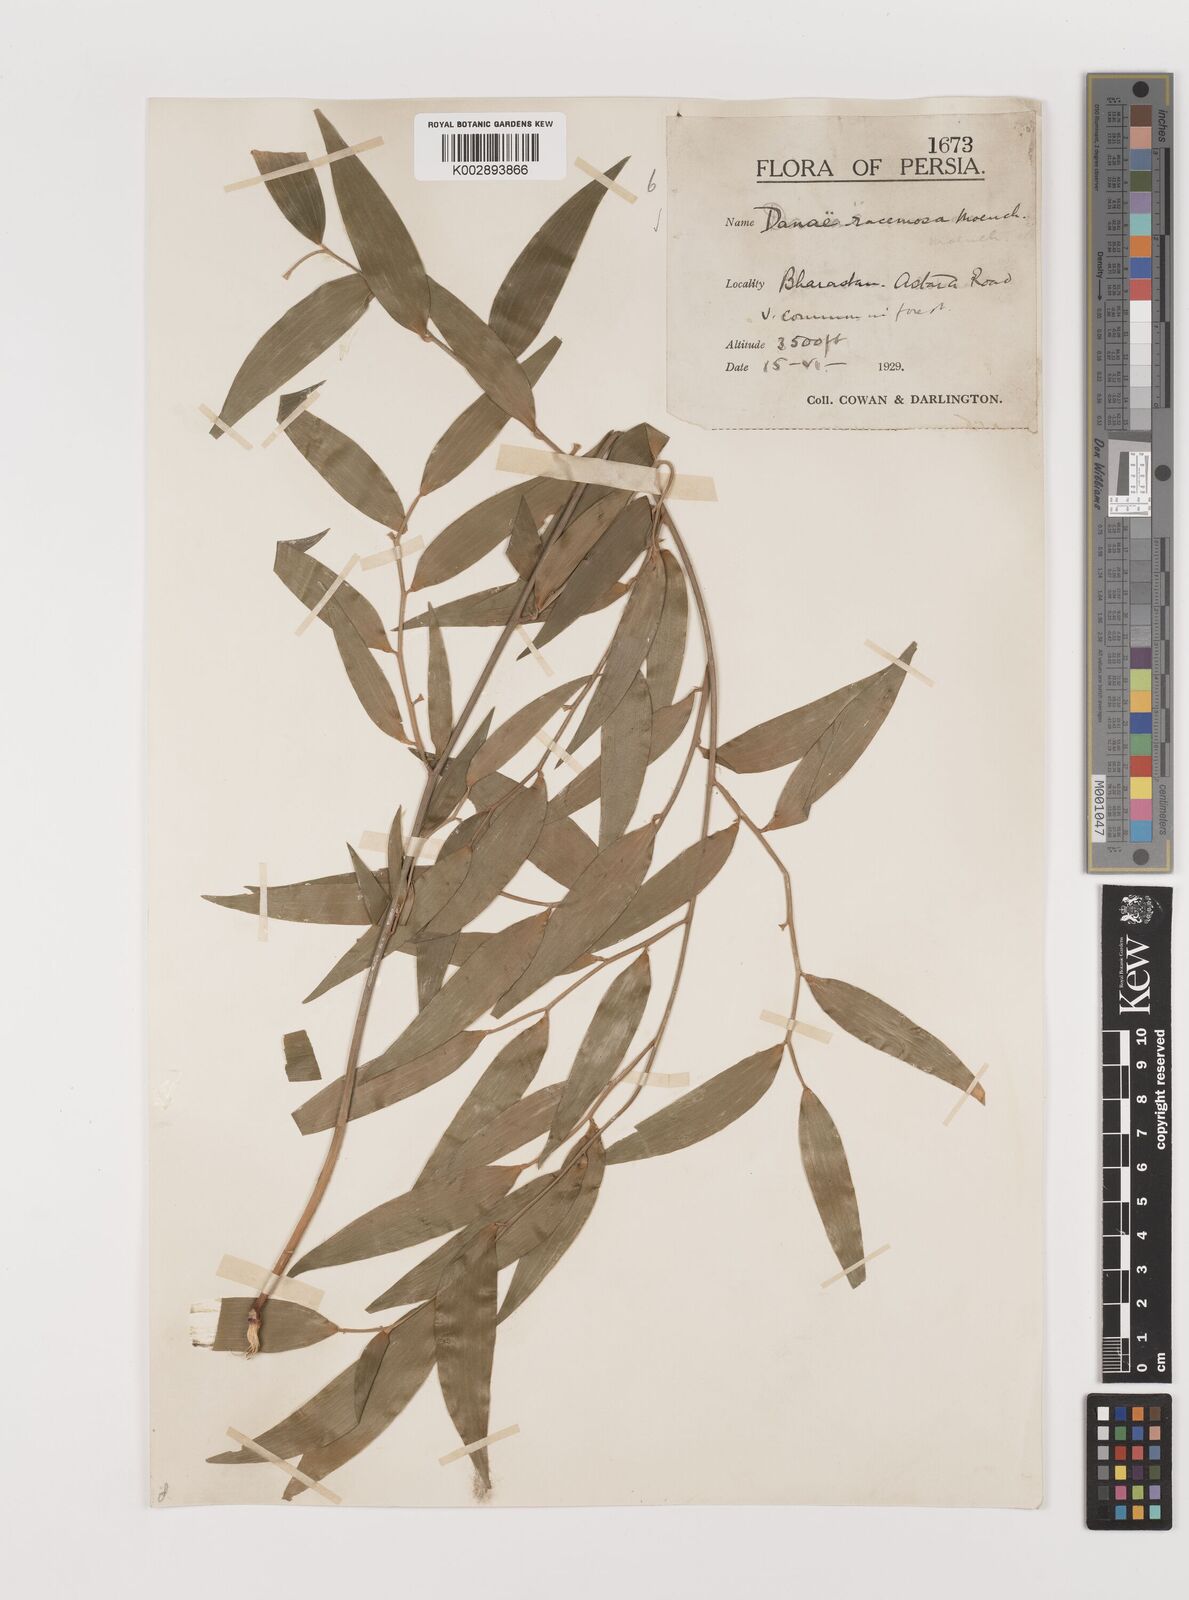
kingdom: Plantae
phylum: Tracheophyta
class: Liliopsida
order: Asparagales
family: Asparagaceae
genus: Danae
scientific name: Danae racemosa
